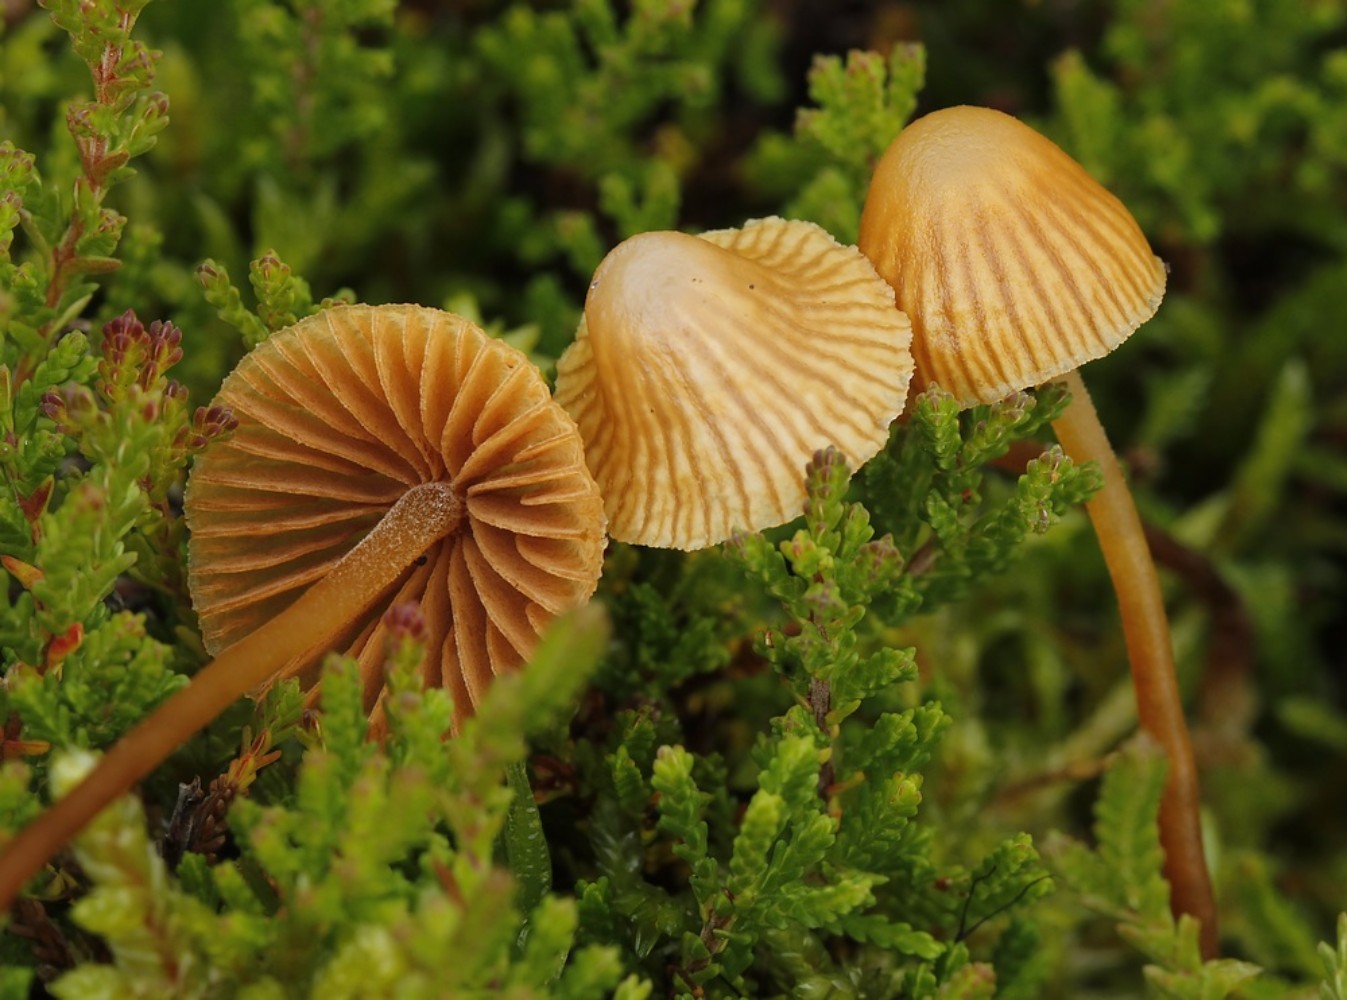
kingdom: Fungi
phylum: Basidiomycota
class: Agaricomycetes
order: Agaricales
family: Hymenogastraceae
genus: Galerina
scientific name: Galerina
